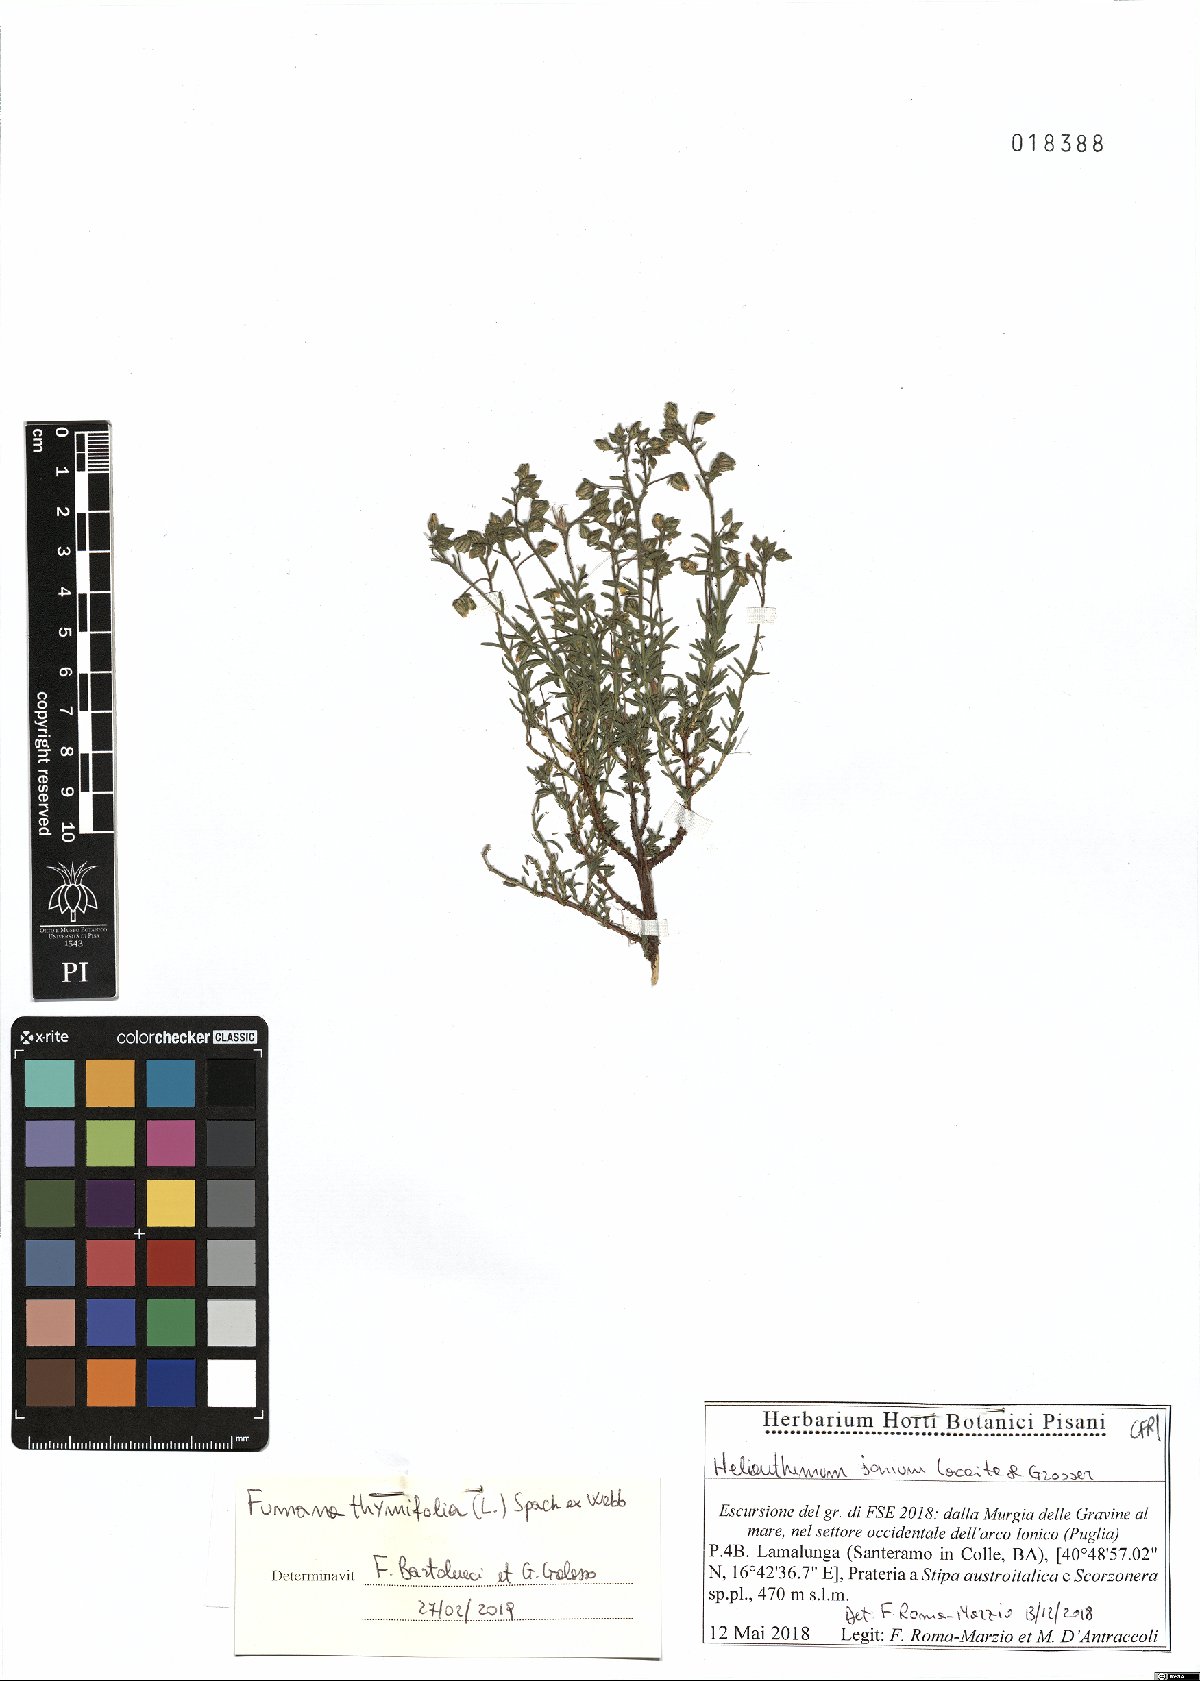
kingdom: Plantae
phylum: Tracheophyta
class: Magnoliopsida
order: Malvales
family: Cistaceae
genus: Fumana
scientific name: Fumana thymifolia
